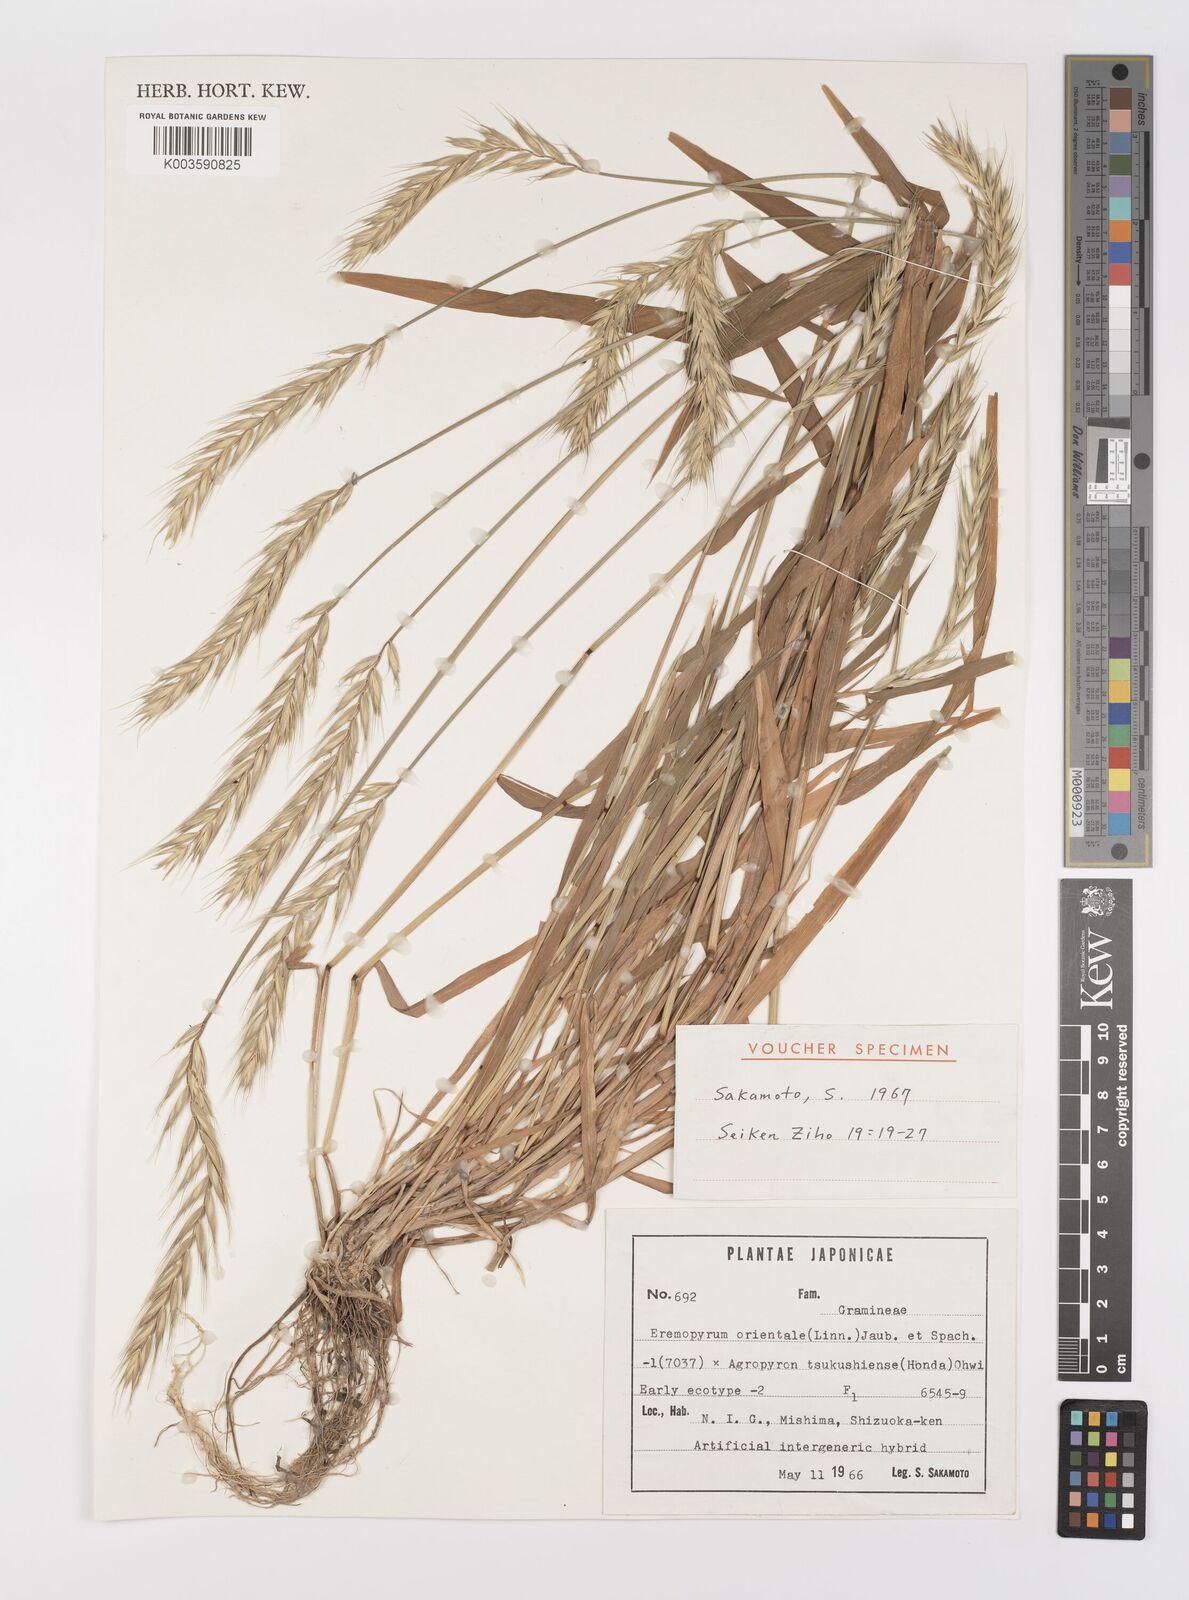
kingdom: Plantae
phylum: Tracheophyta
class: Liliopsida
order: Poales
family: Poaceae
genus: Elyhordeum
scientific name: Elyhordeum
